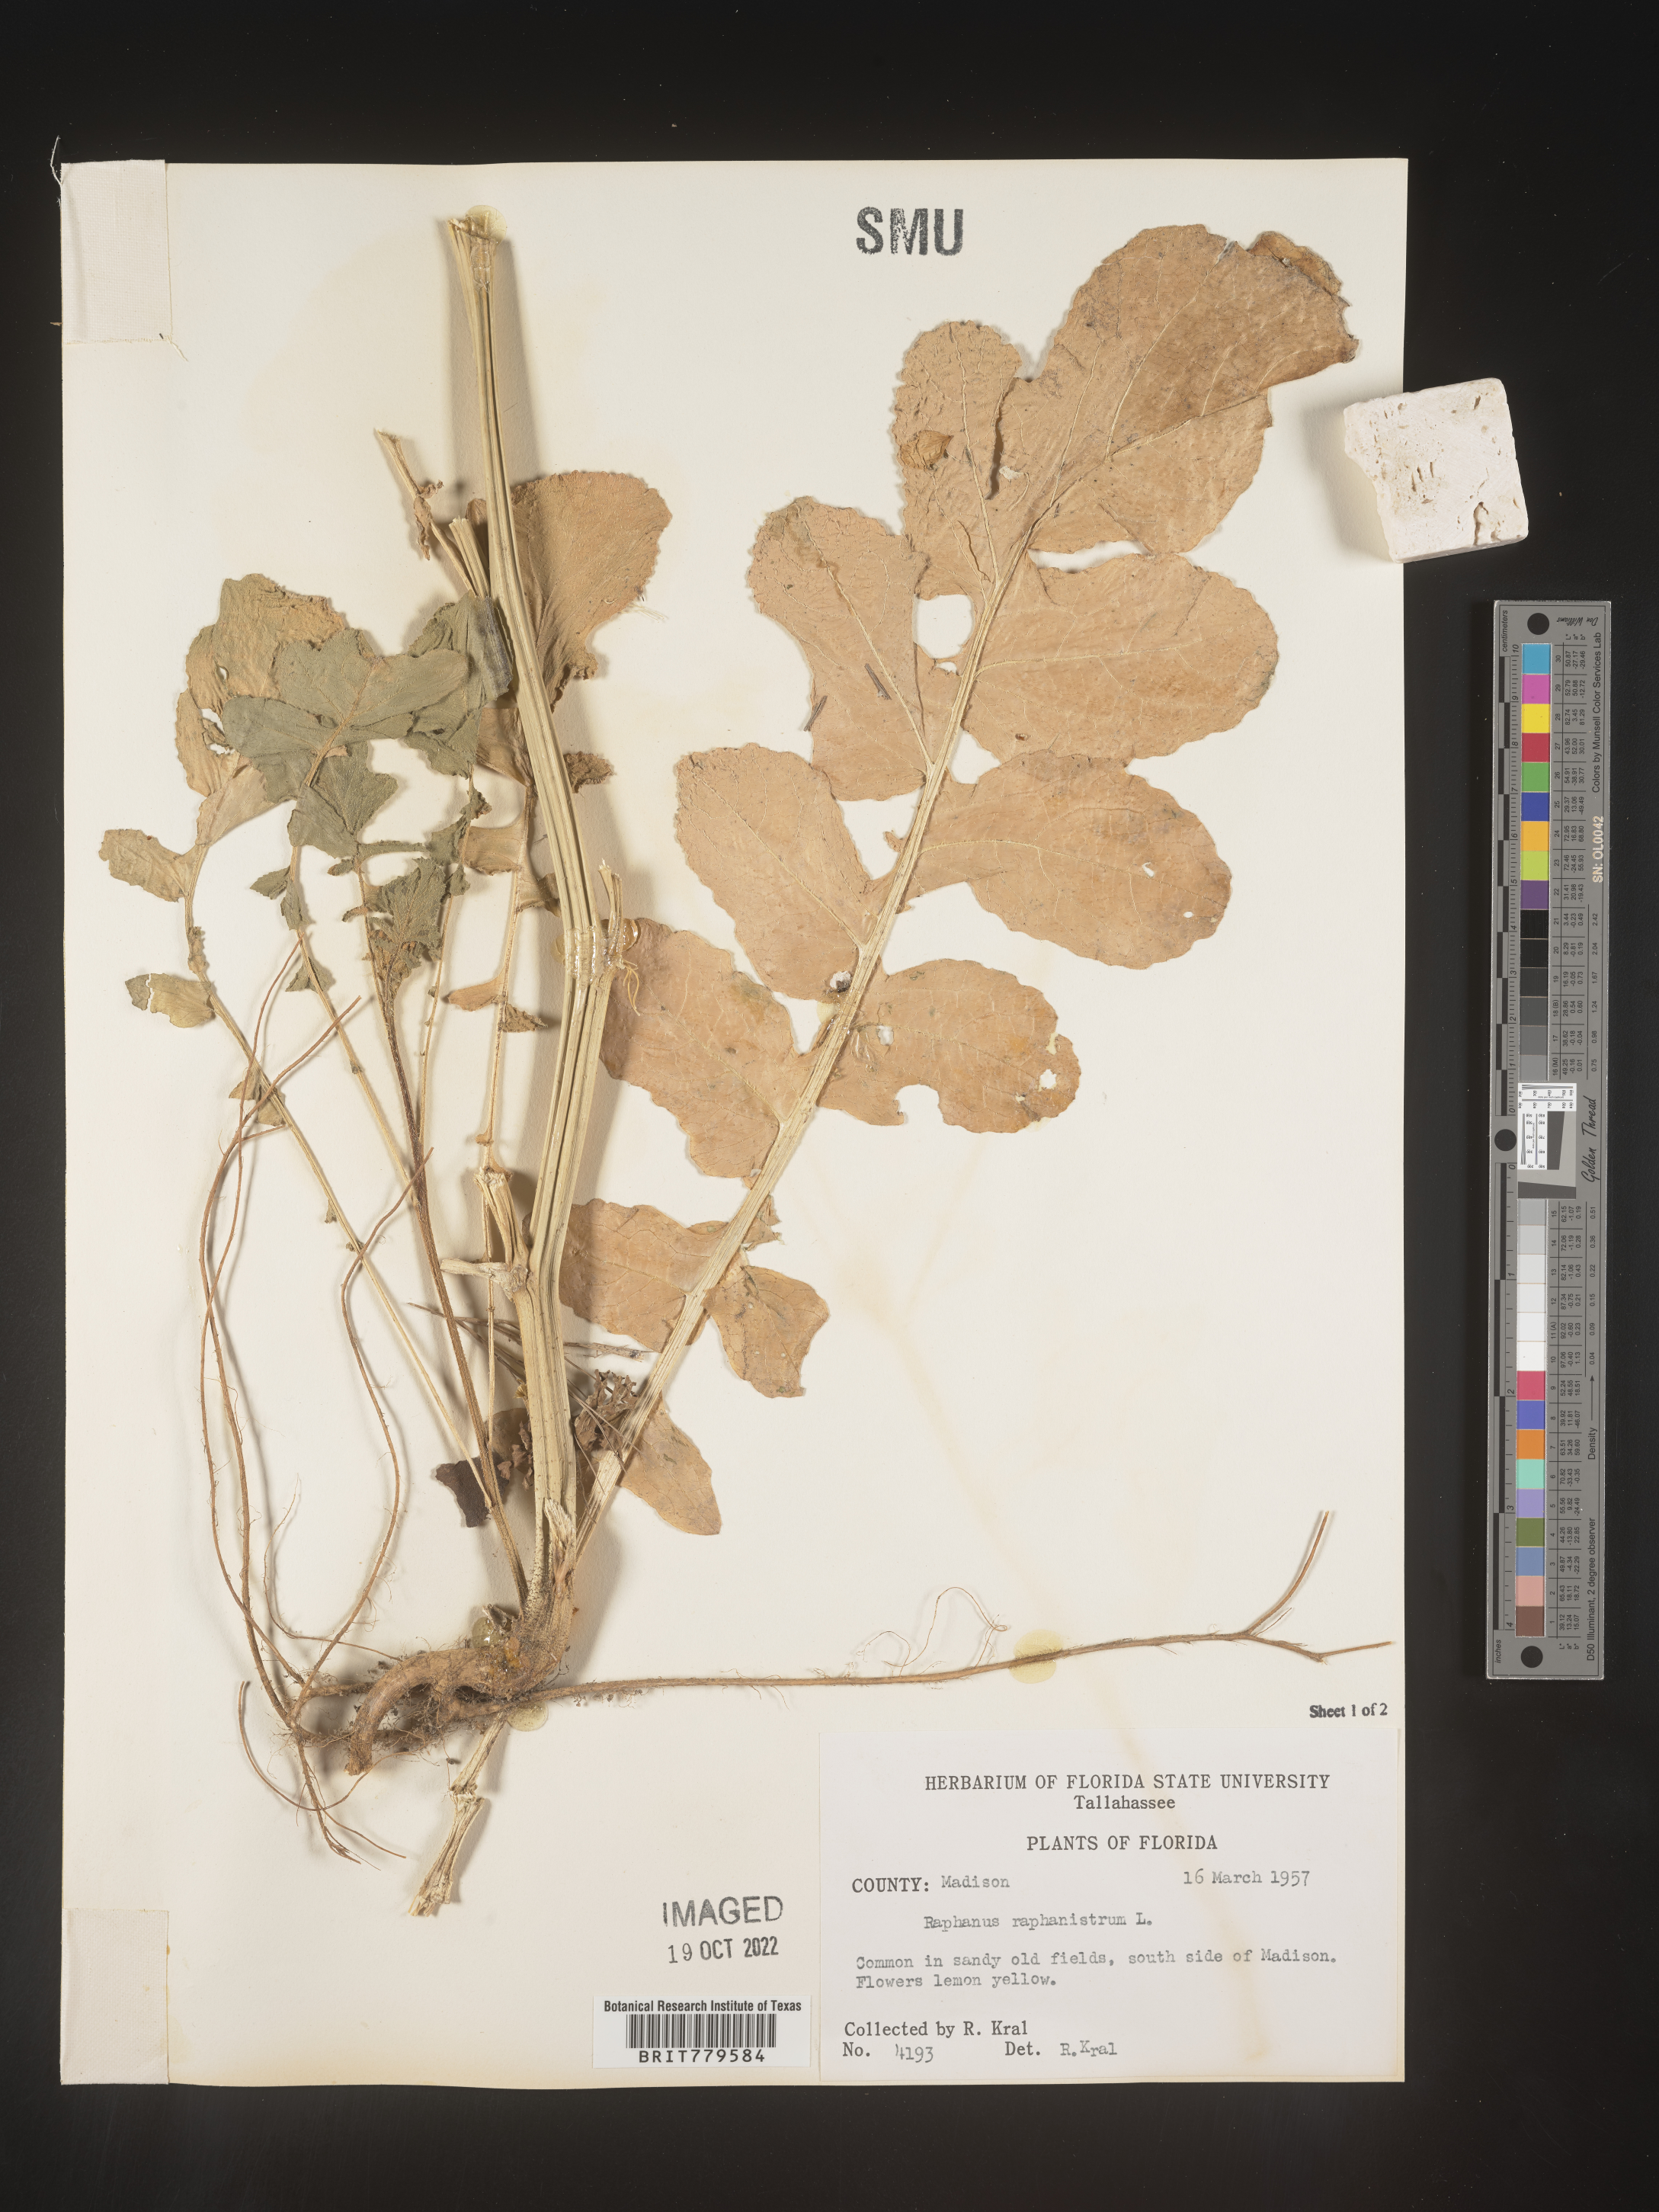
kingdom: Plantae
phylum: Tracheophyta
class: Magnoliopsida
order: Brassicales
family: Brassicaceae
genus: Raphanus
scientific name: Raphanus raphanistrum
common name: Wild radish
